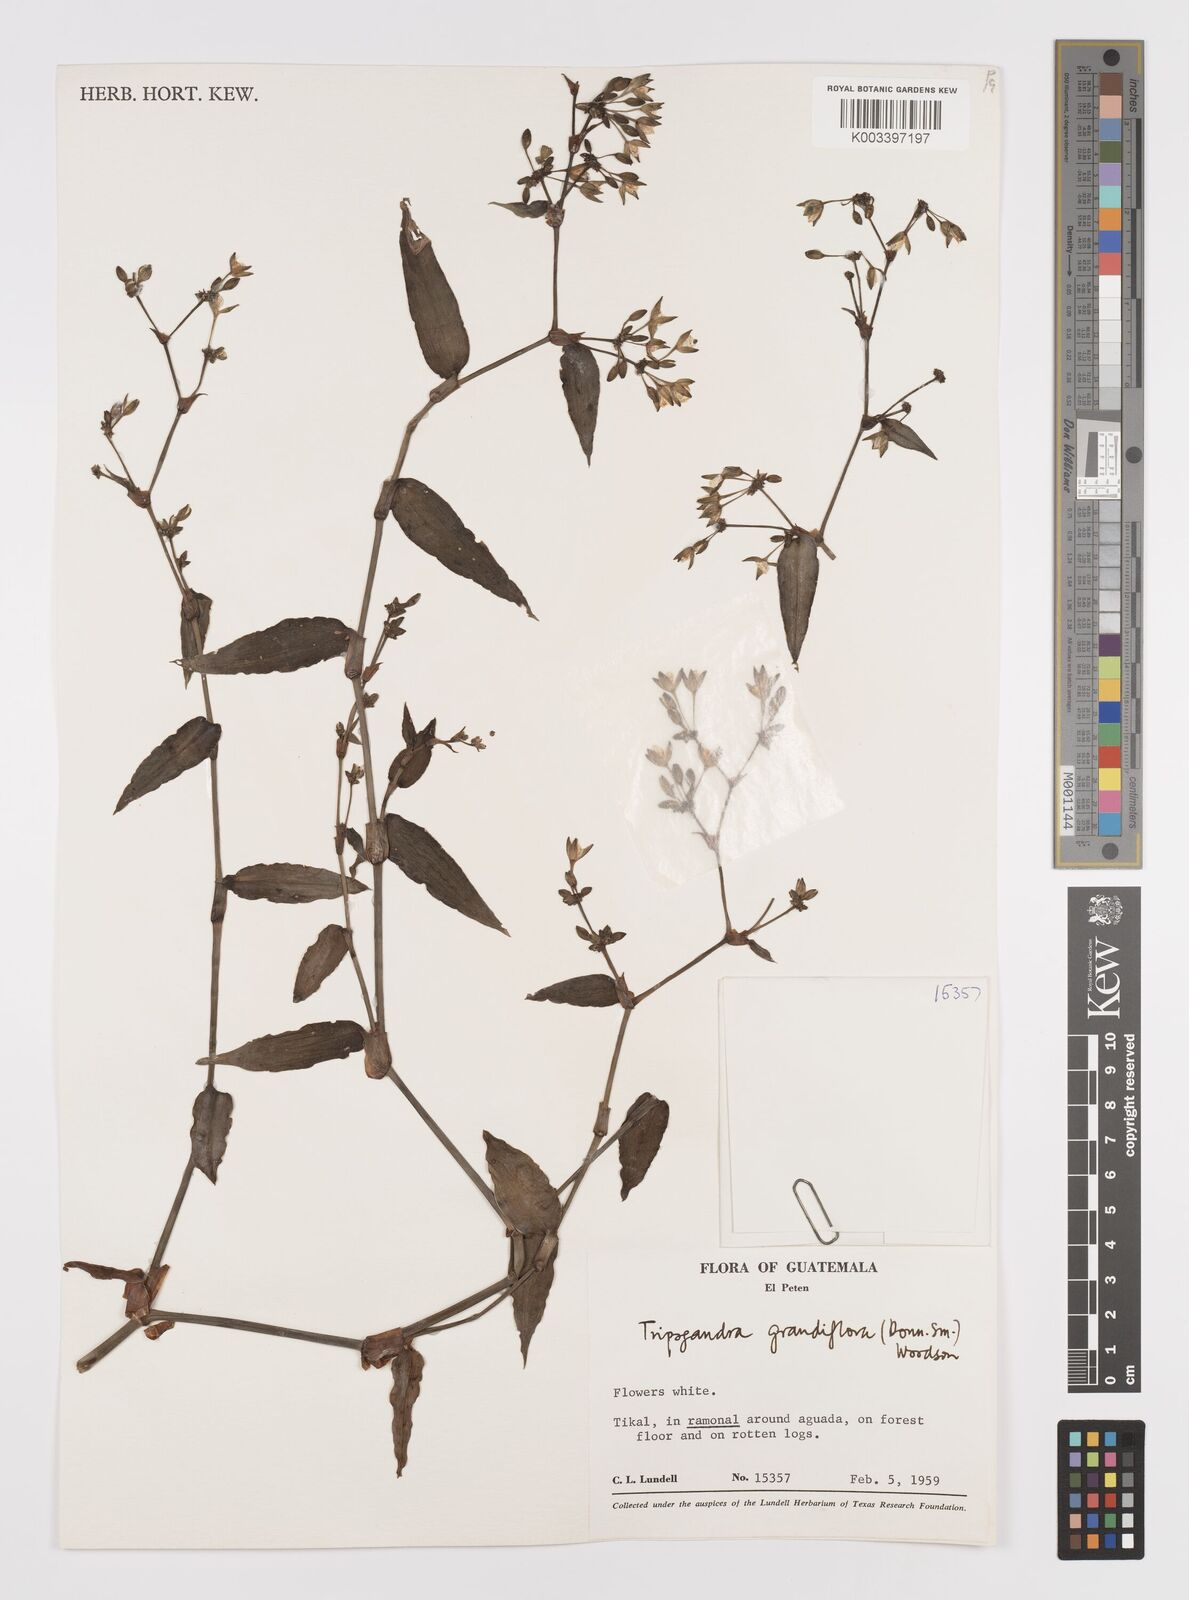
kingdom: Plantae
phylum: Tracheophyta
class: Liliopsida
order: Commelinales
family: Commelinaceae
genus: Callisia
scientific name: Callisia grandiflora
